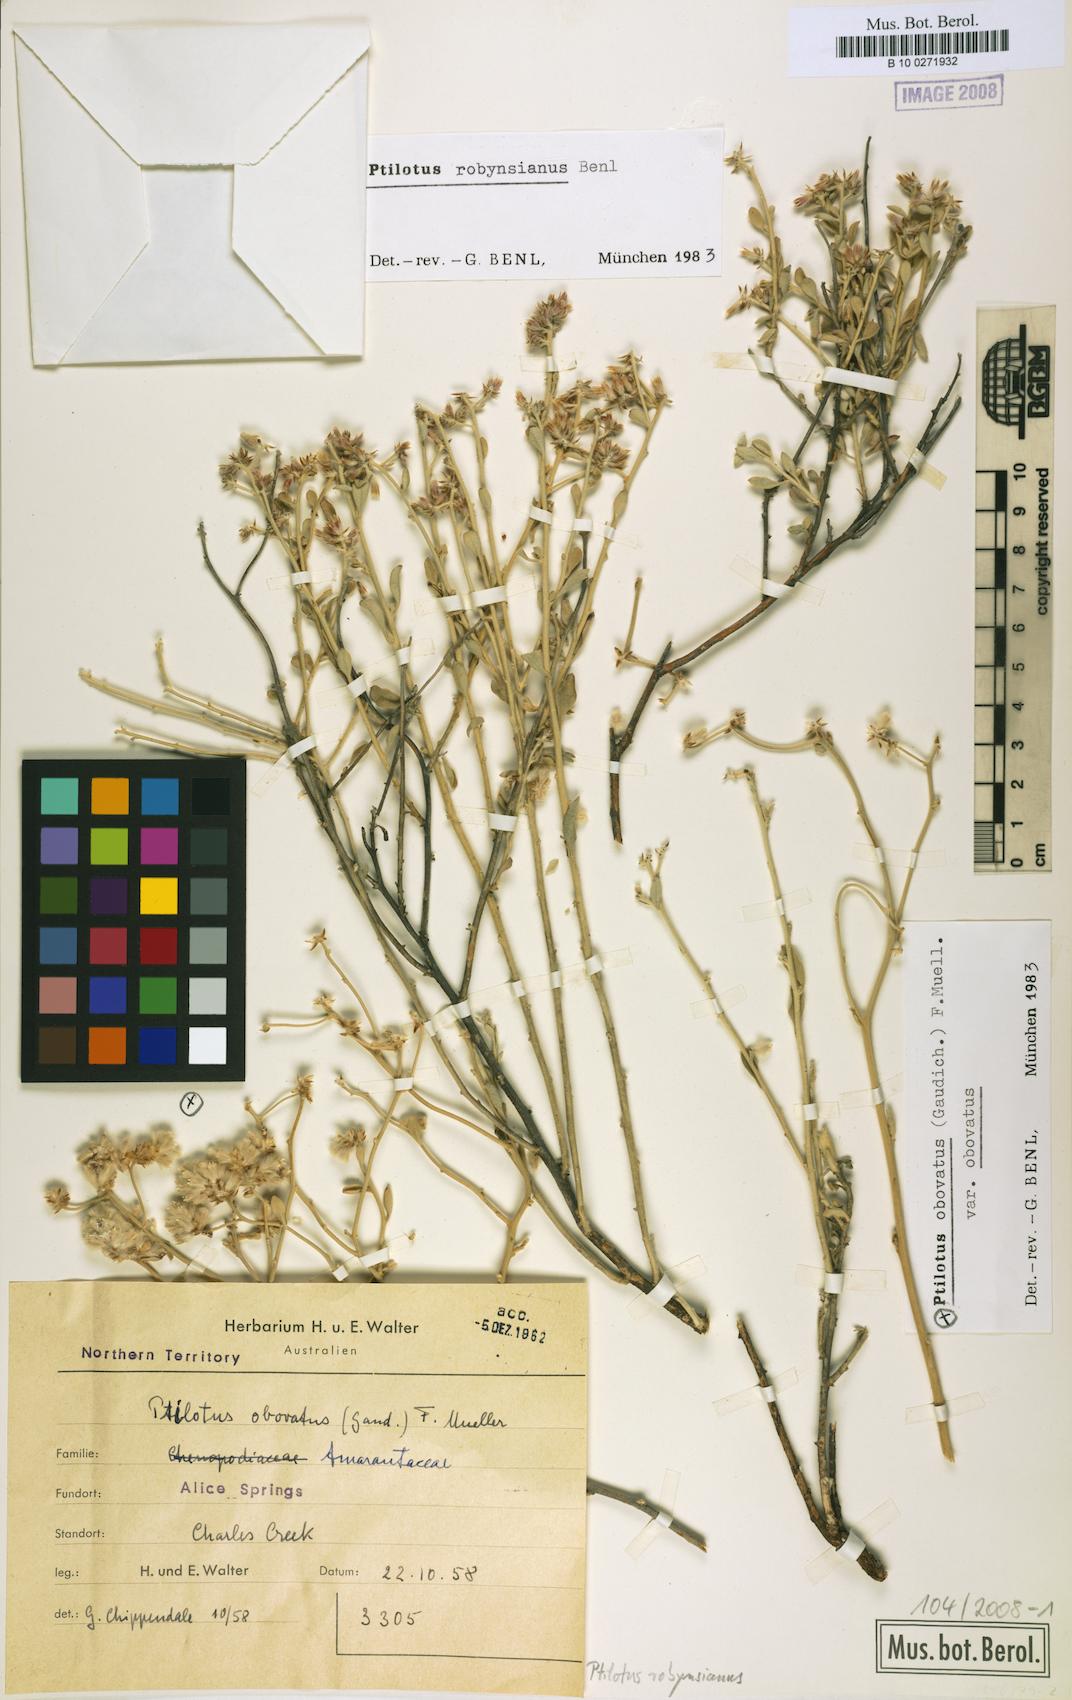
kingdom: Plantae
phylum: Tracheophyta
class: Magnoliopsida
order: Caryophyllales
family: Amaranthaceae
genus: Ptilotus
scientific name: Ptilotus robynsianus
